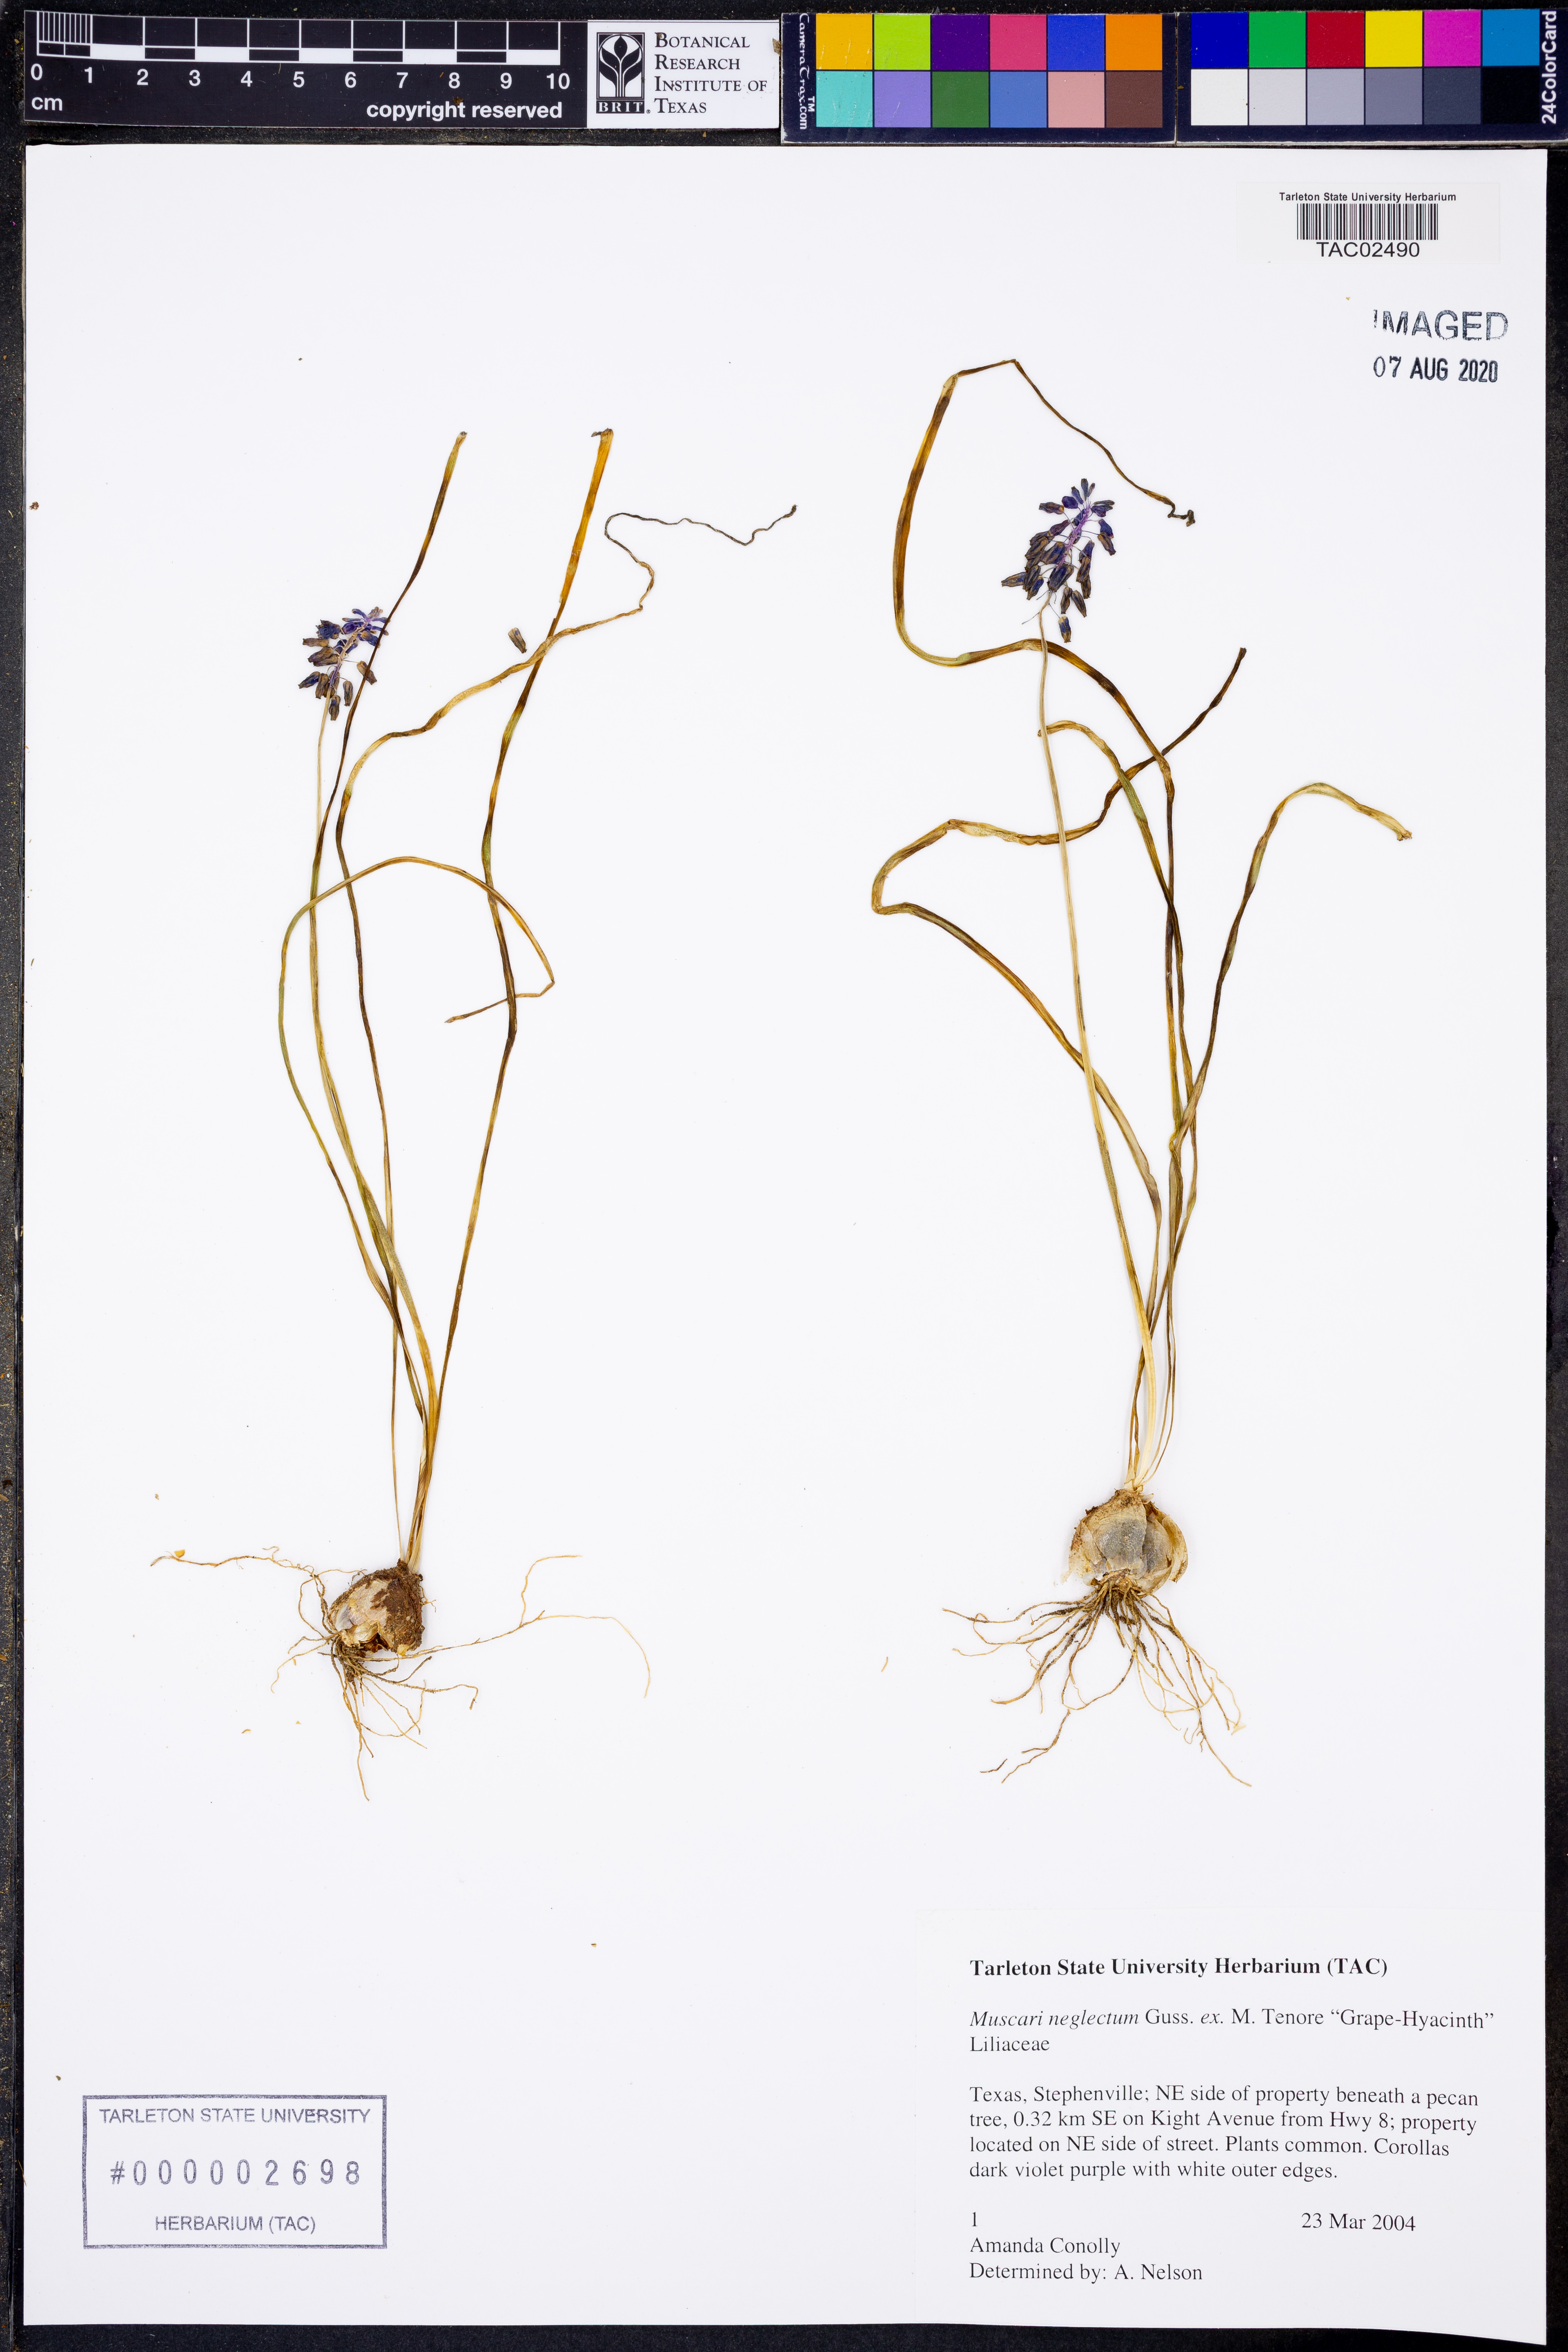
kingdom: Plantae
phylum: Tracheophyta
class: Liliopsida
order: Asparagales
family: Asparagaceae
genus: Muscari
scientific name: Muscari neglectum
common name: Grape-hyacinth
